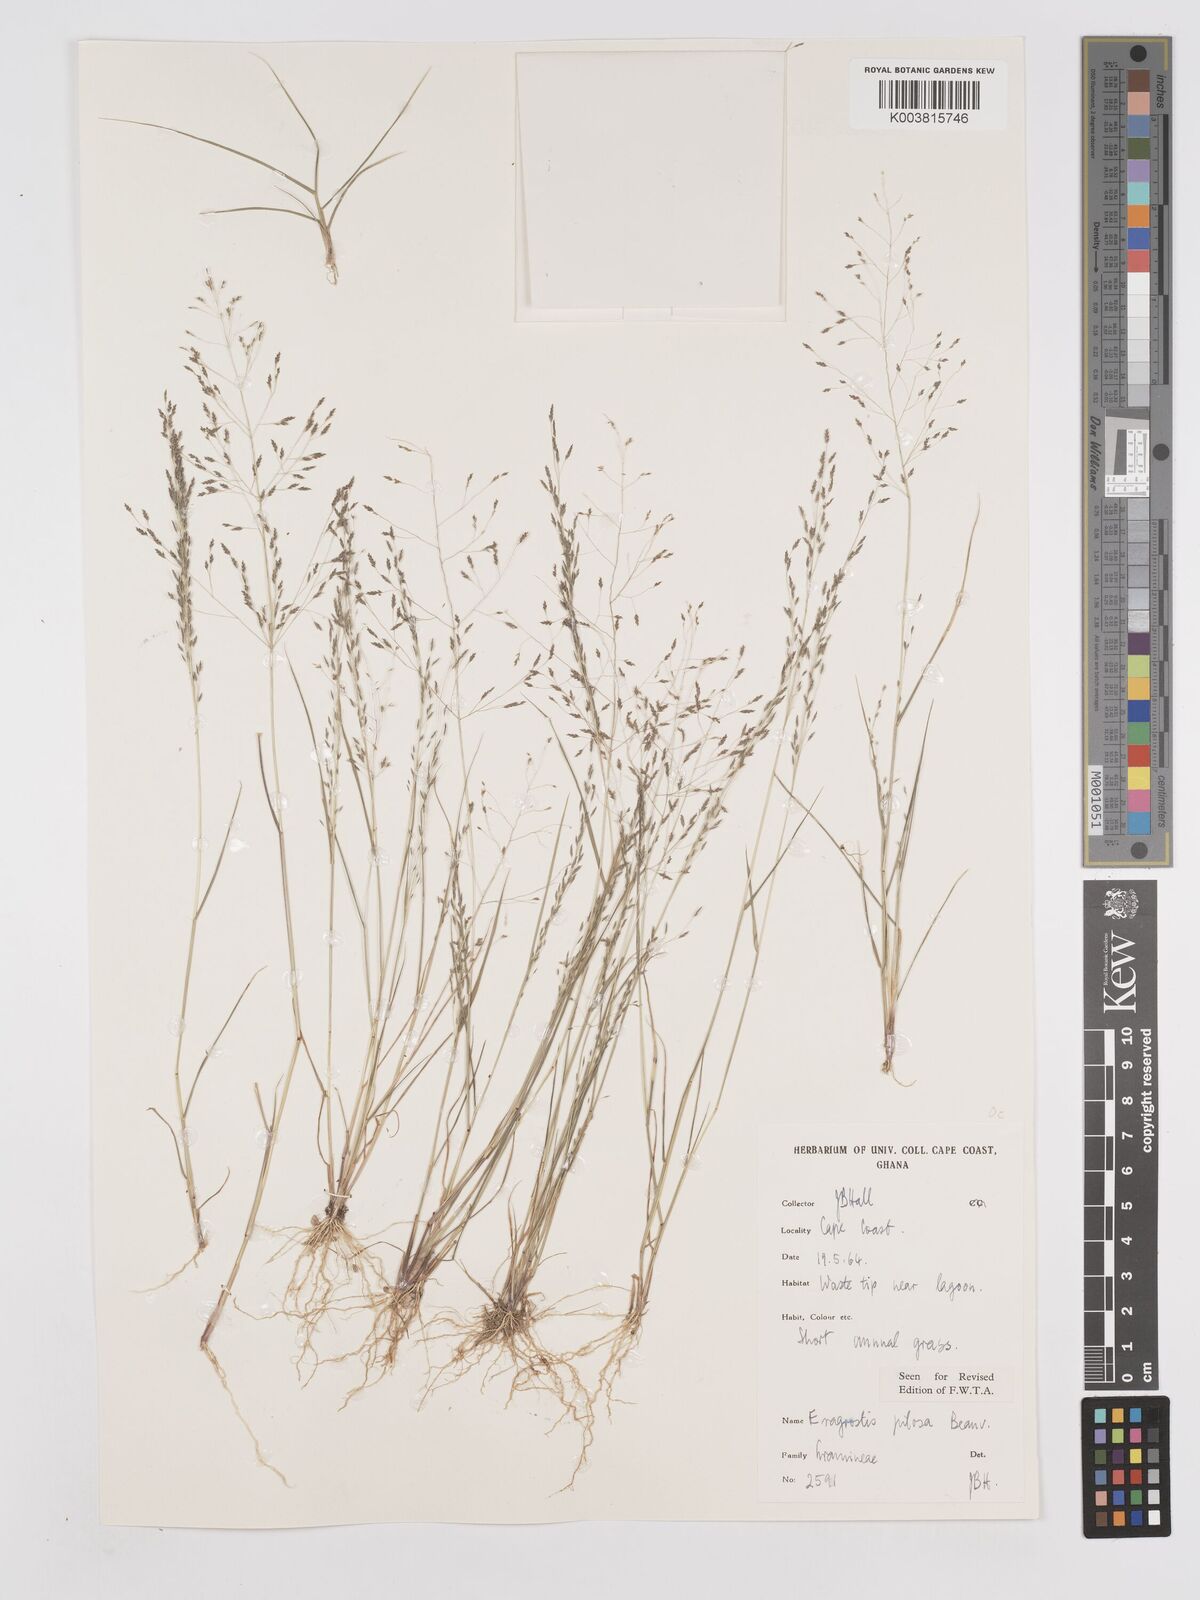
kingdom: Plantae
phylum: Tracheophyta
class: Liliopsida
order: Poales
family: Poaceae
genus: Eragrostis
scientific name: Eragrostis pilosa
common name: Indian lovegrass
